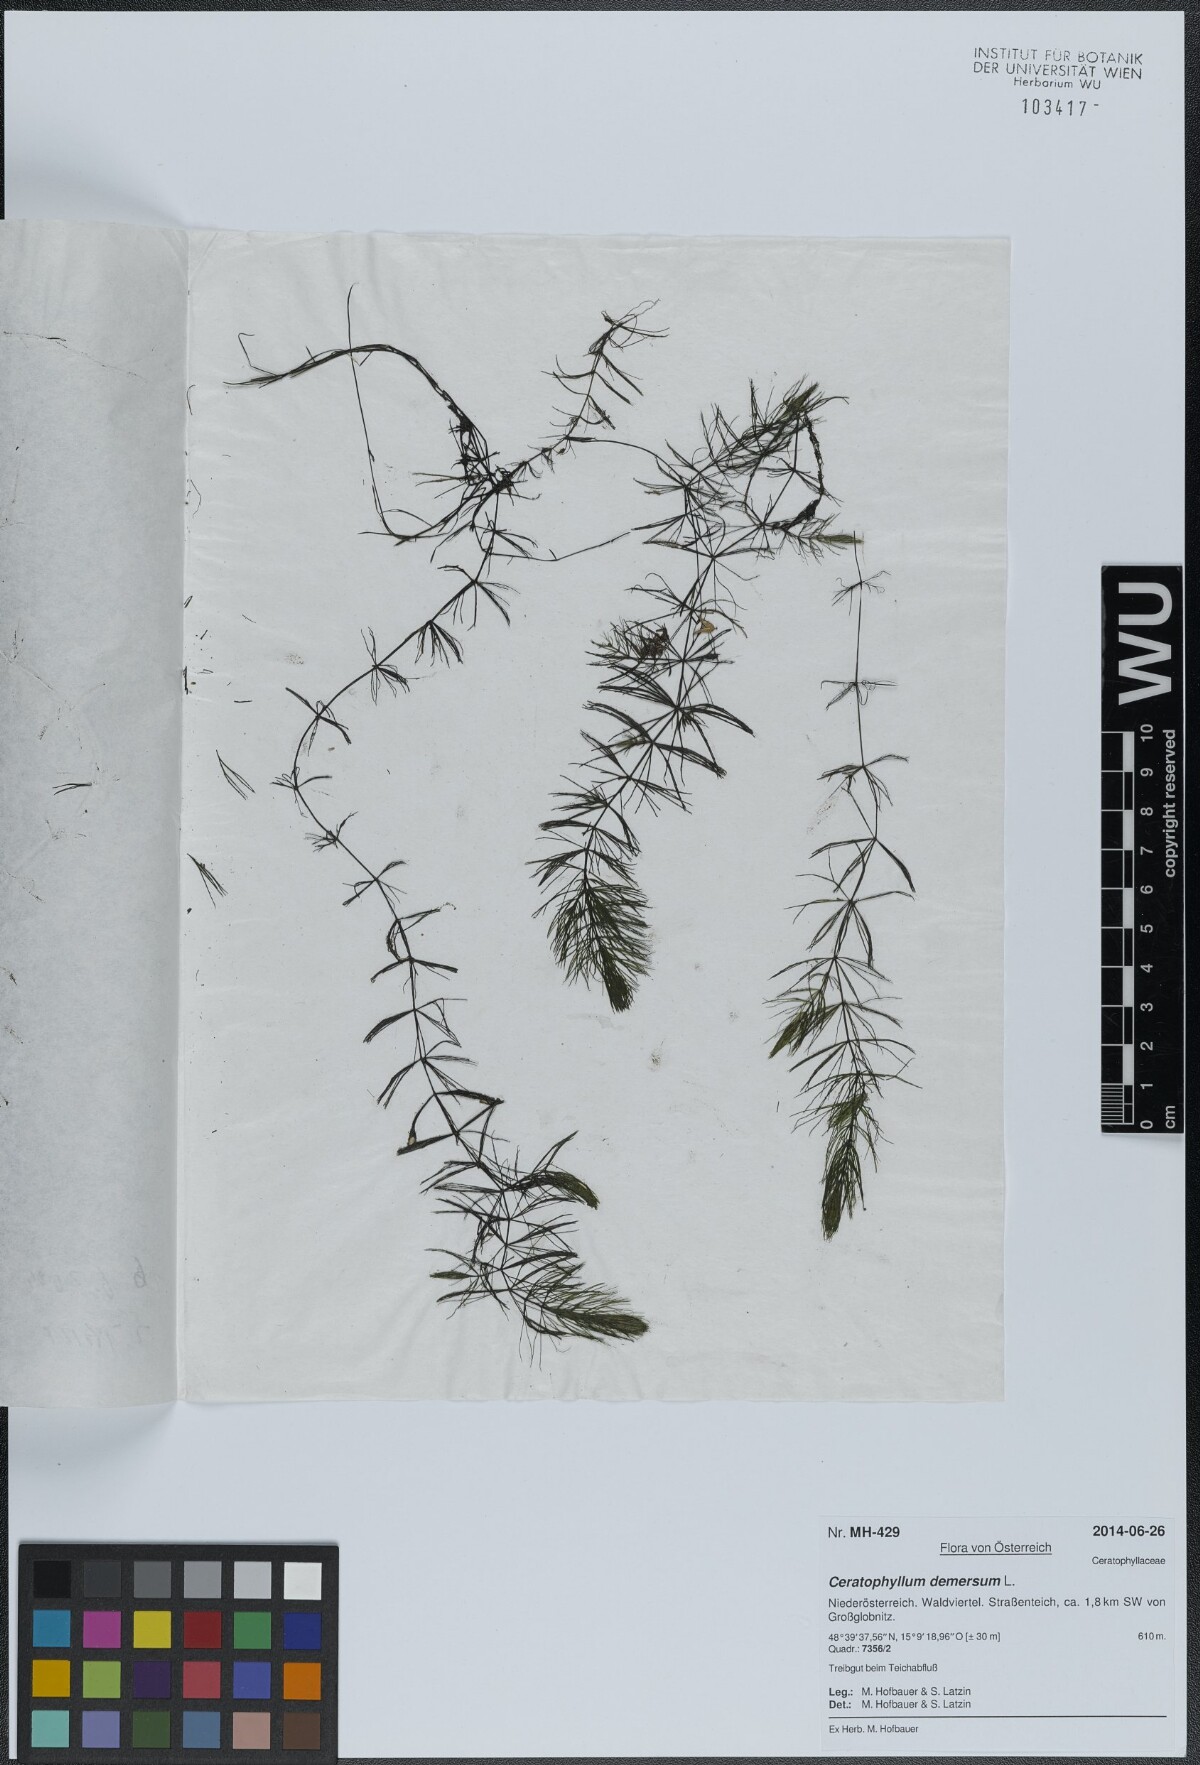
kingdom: Plantae
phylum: Tracheophyta
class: Magnoliopsida
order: Ceratophyllales
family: Ceratophyllaceae
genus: Ceratophyllum
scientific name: Ceratophyllum demersum
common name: Rigid hornwort
